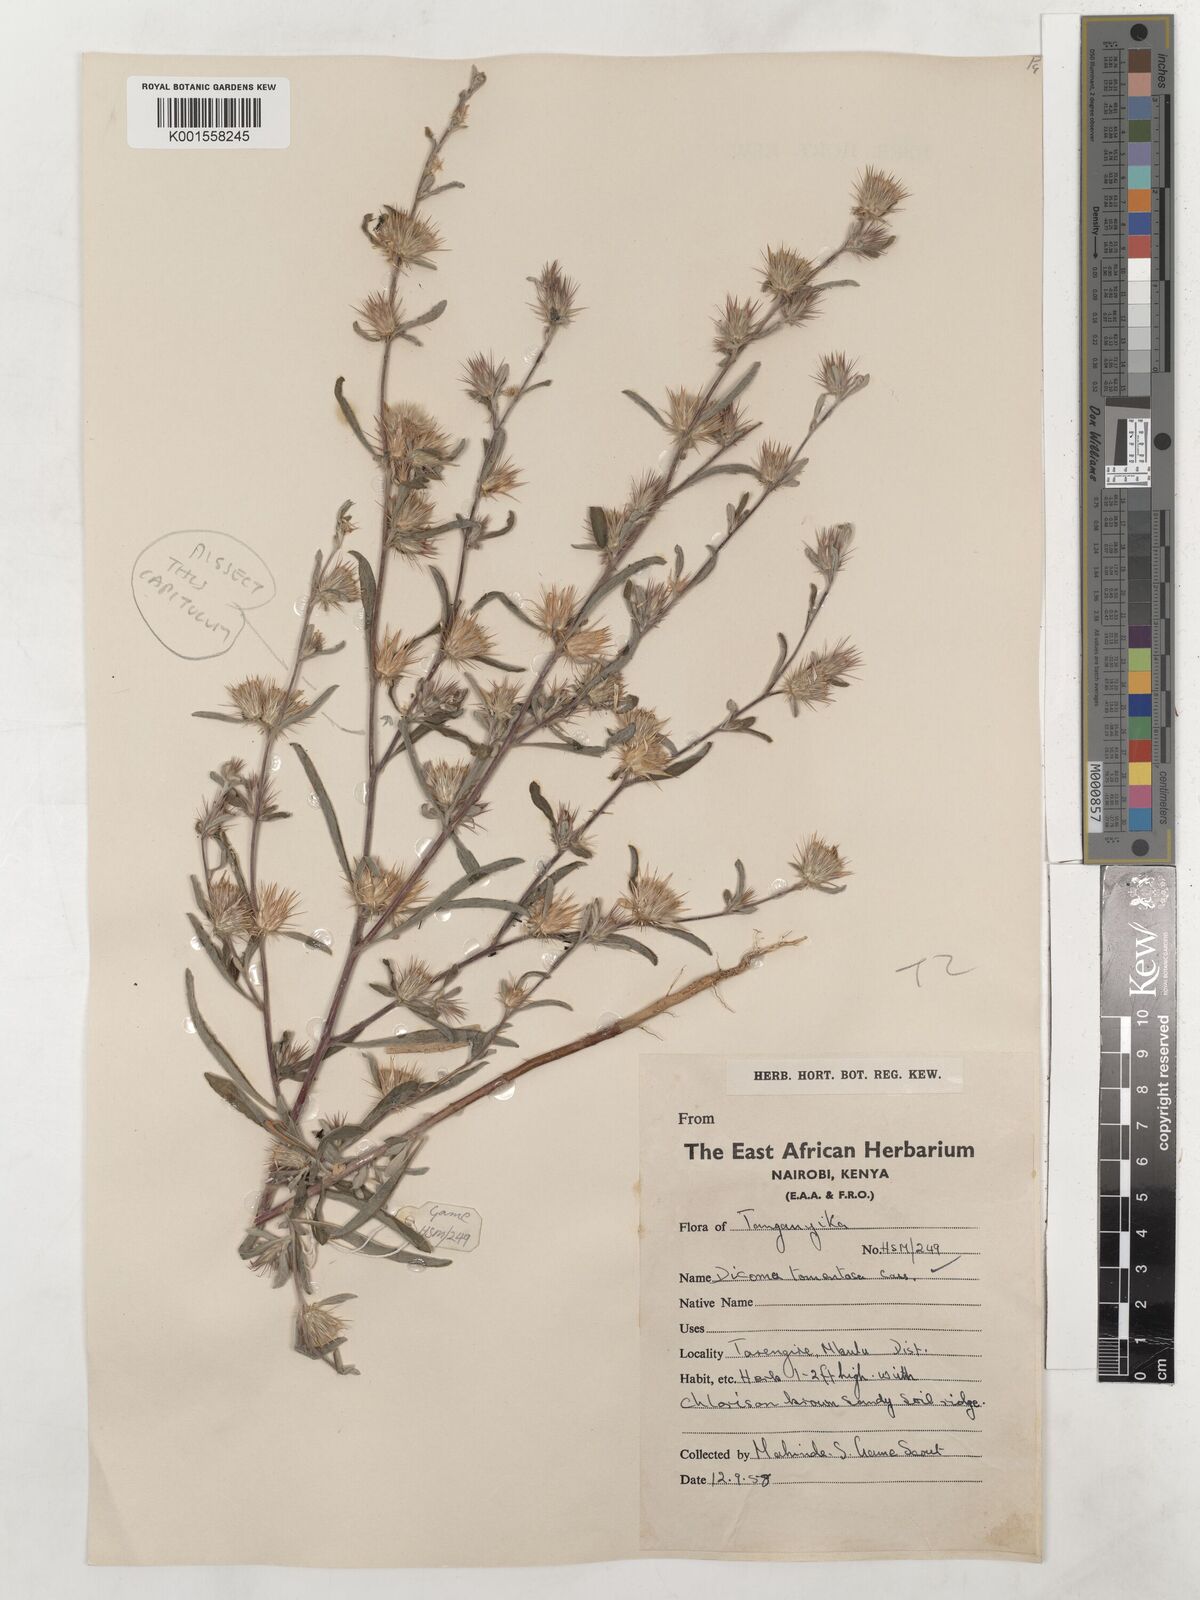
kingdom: Plantae
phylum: Tracheophyta
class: Magnoliopsida
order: Asterales
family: Asteraceae
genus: Dicoma
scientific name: Dicoma tomentosa
